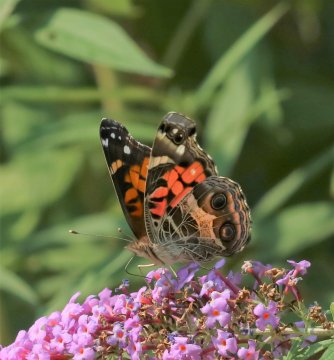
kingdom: Animalia
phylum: Arthropoda
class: Insecta
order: Lepidoptera
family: Nymphalidae
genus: Vanessa
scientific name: Vanessa virginiensis
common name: American Lady
